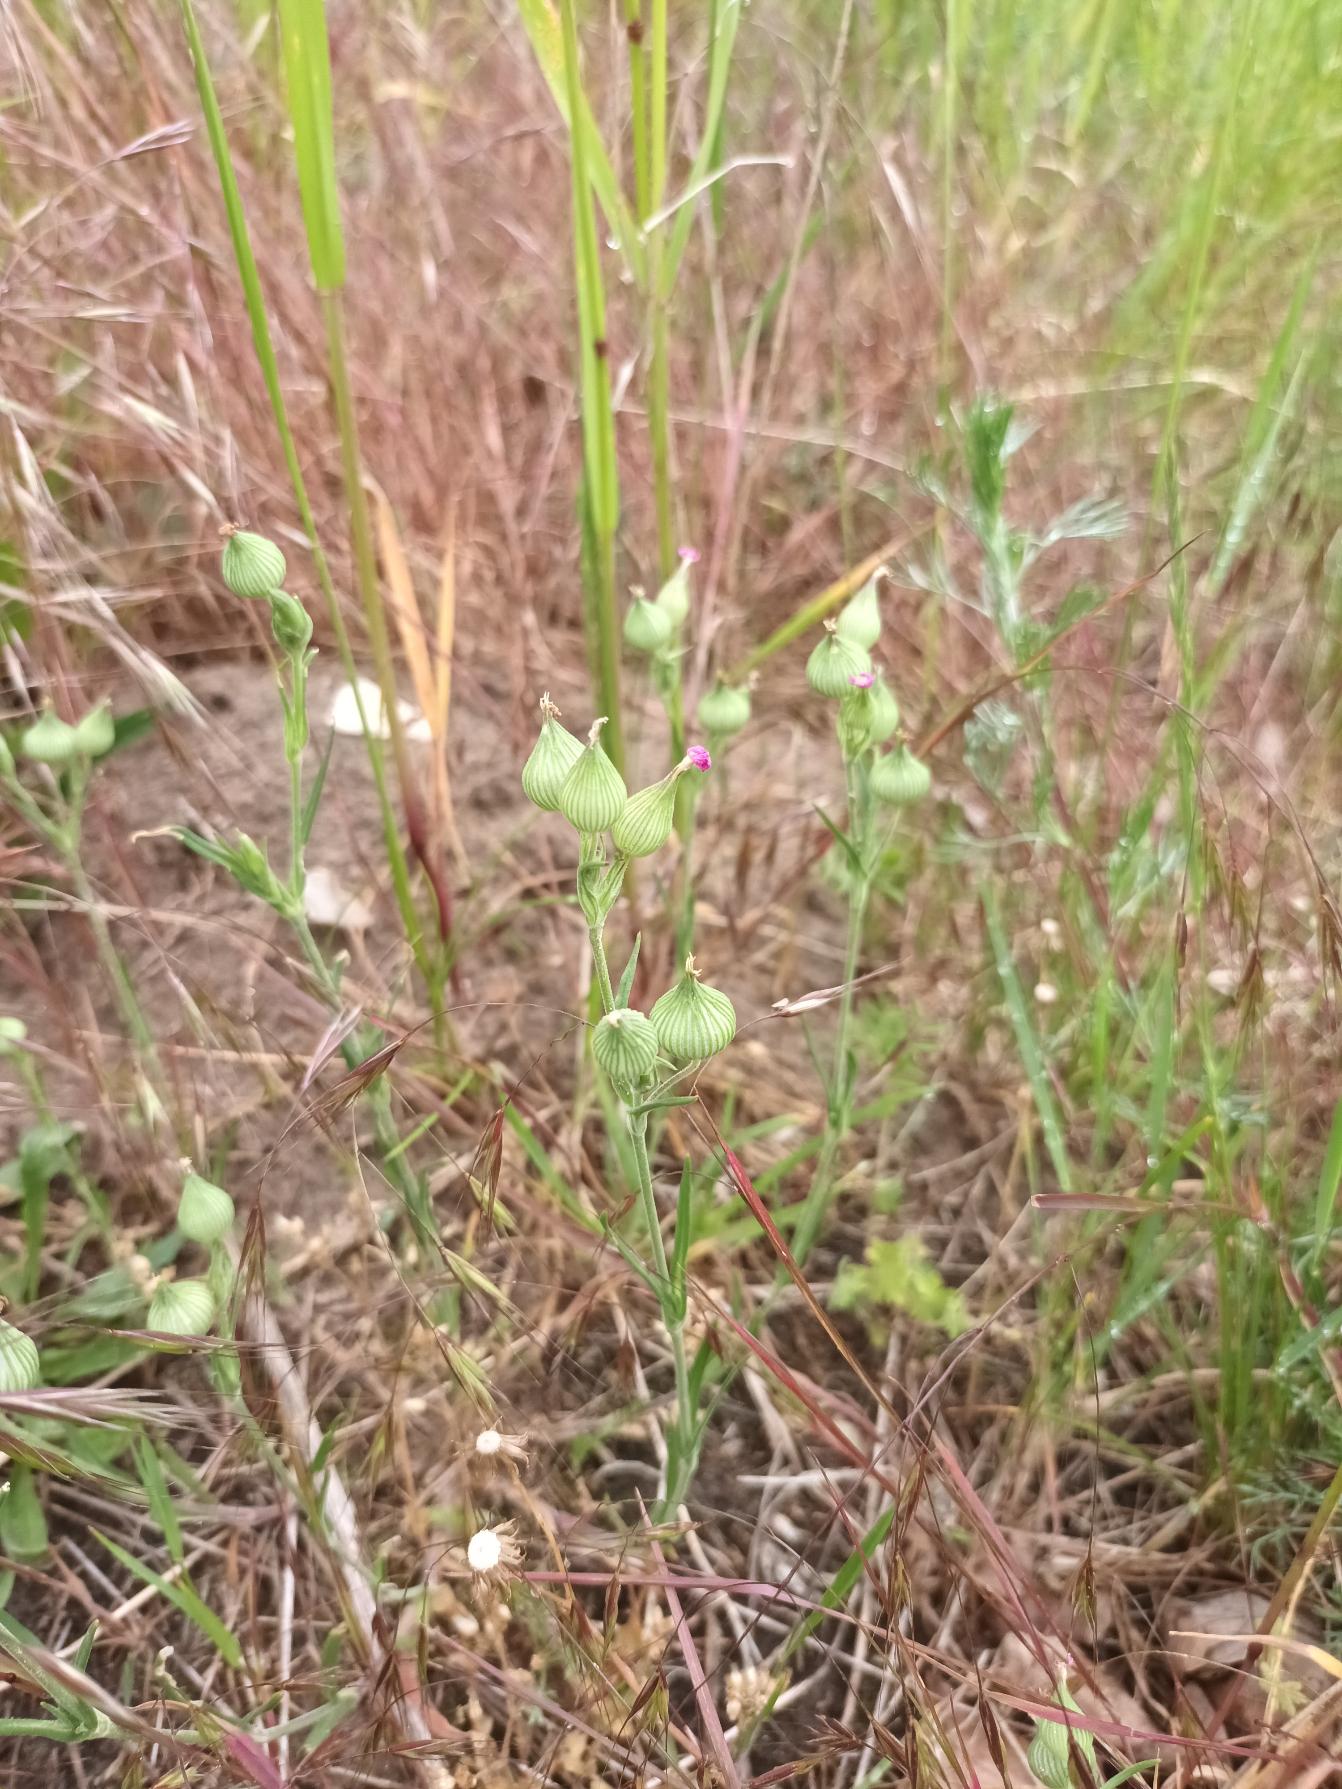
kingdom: Plantae
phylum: Tracheophyta
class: Magnoliopsida
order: Caryophyllales
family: Caryophyllaceae
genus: Silene
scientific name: Silene conica
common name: Kegle-limurt
